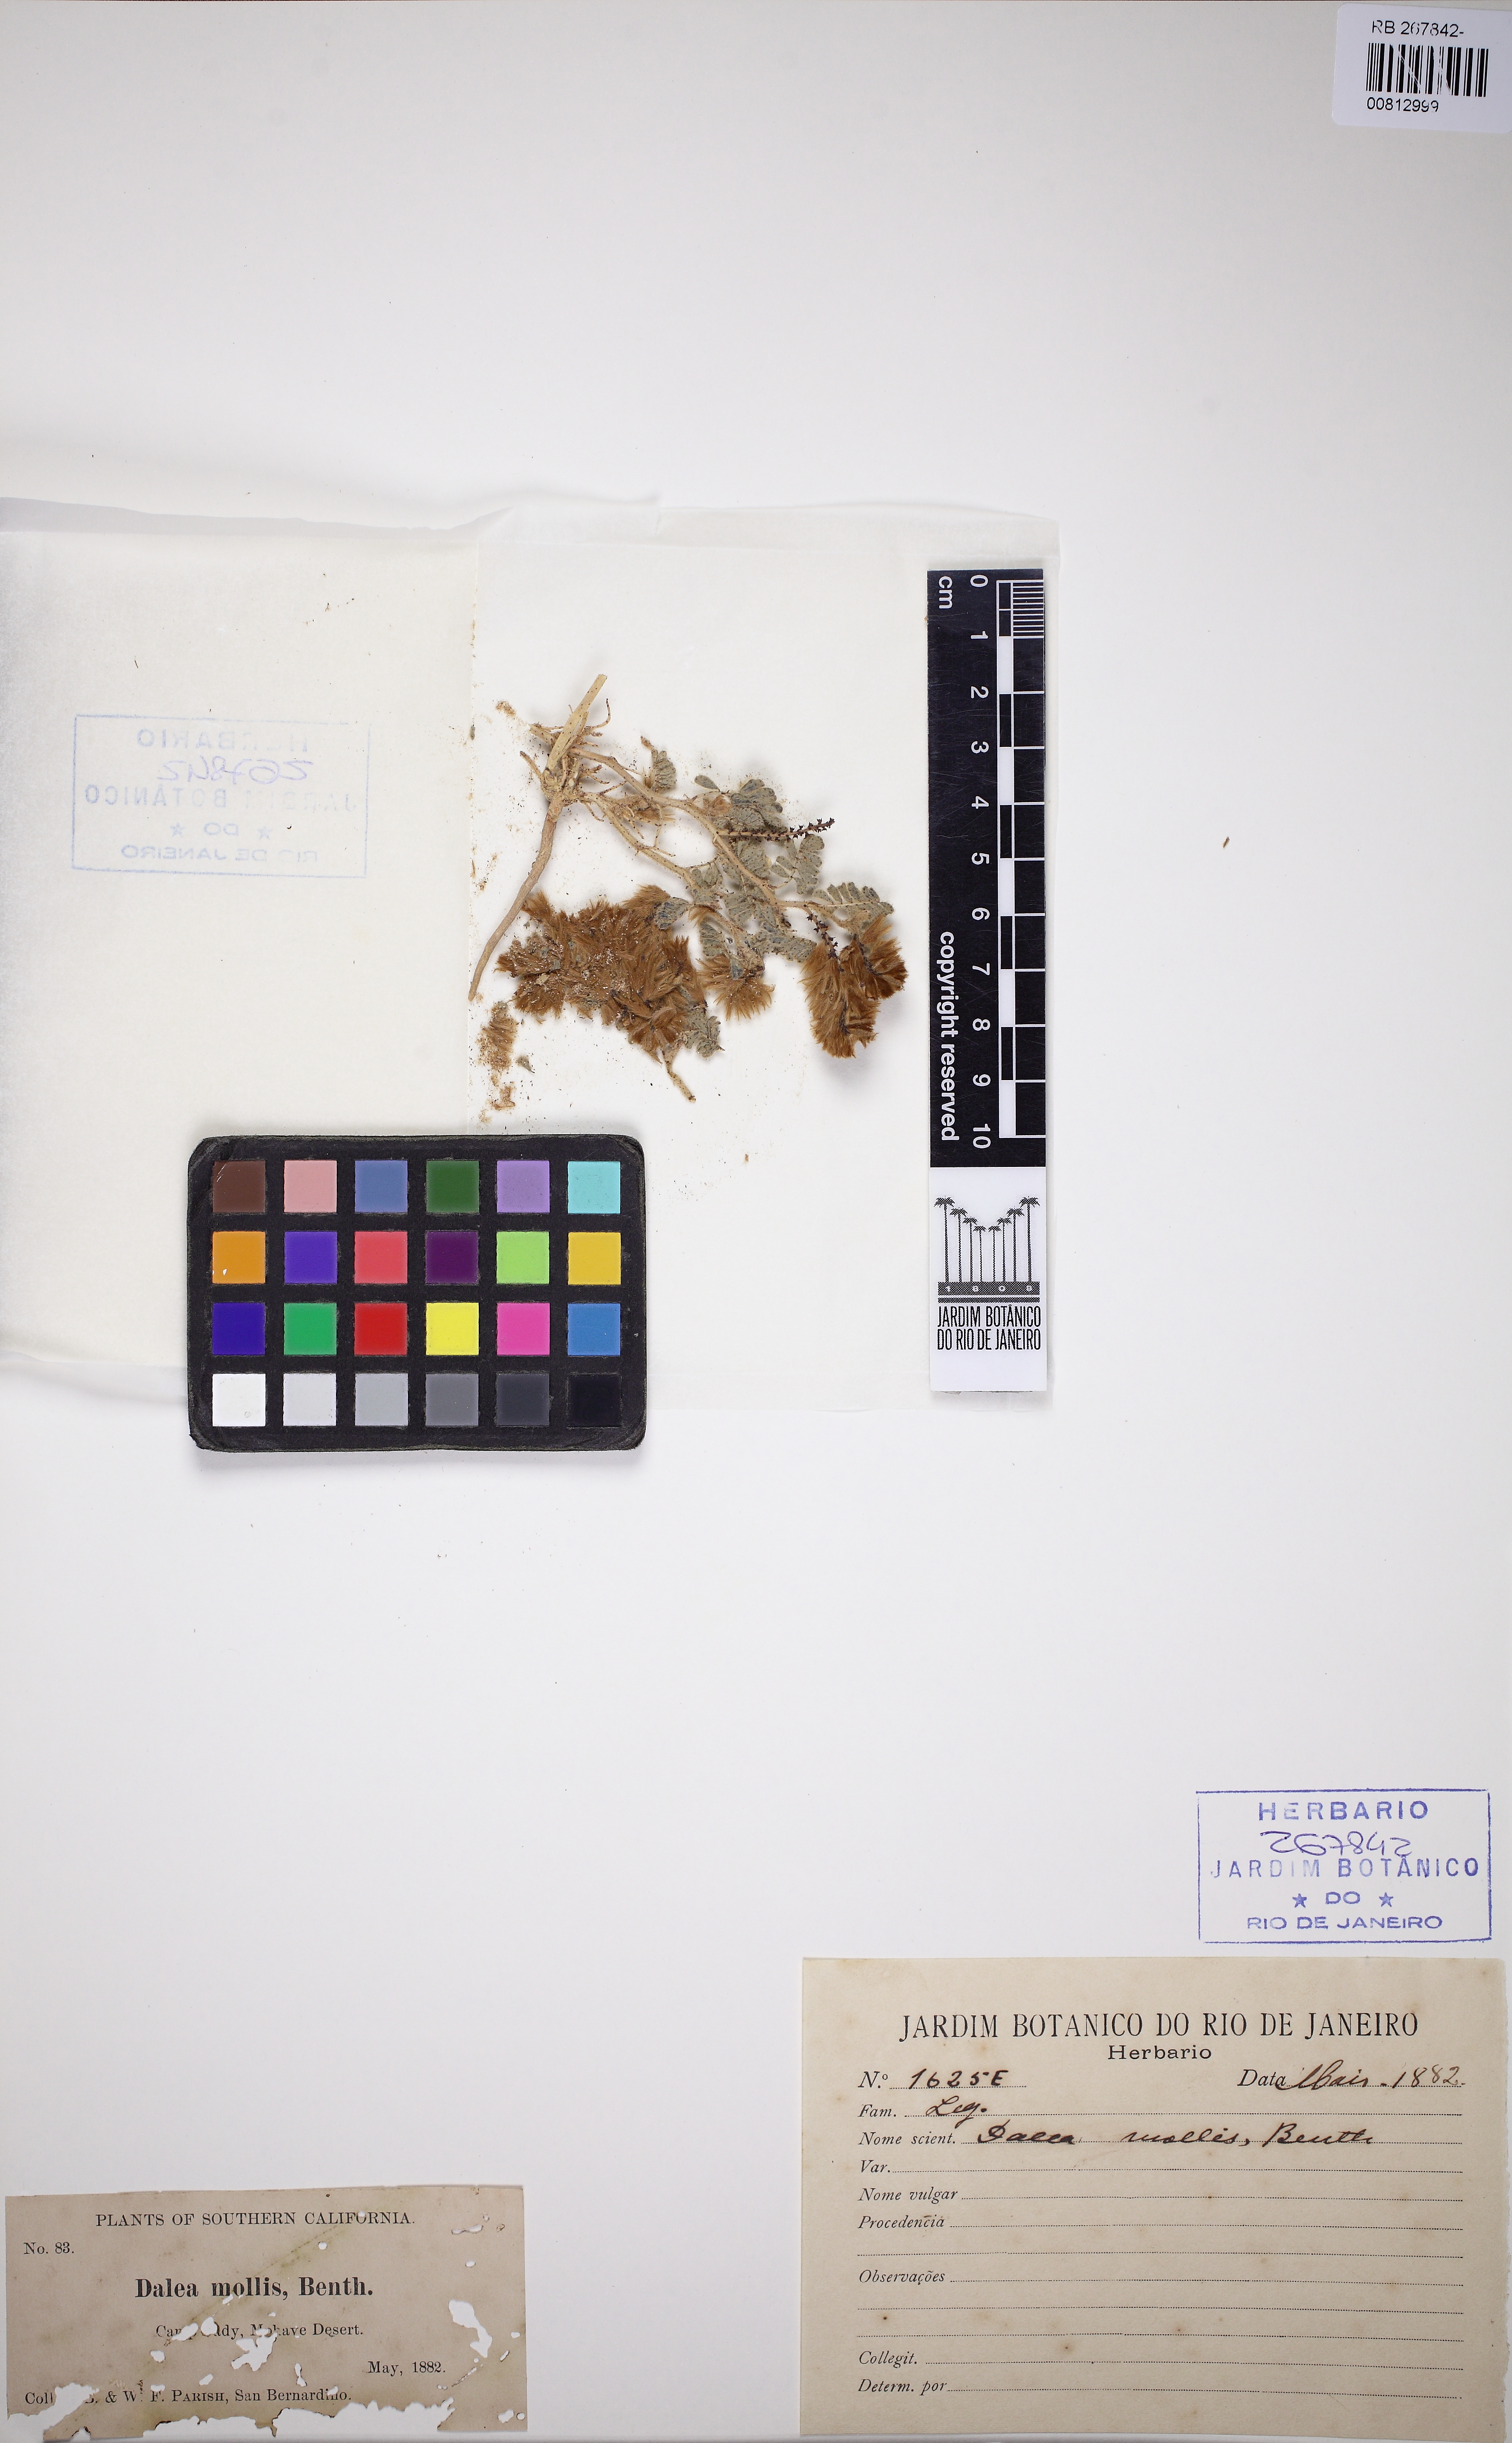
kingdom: Plantae
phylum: Tracheophyta
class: Magnoliopsida
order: Fabales
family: Fabaceae
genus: Dalea
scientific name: Dalea mollis
